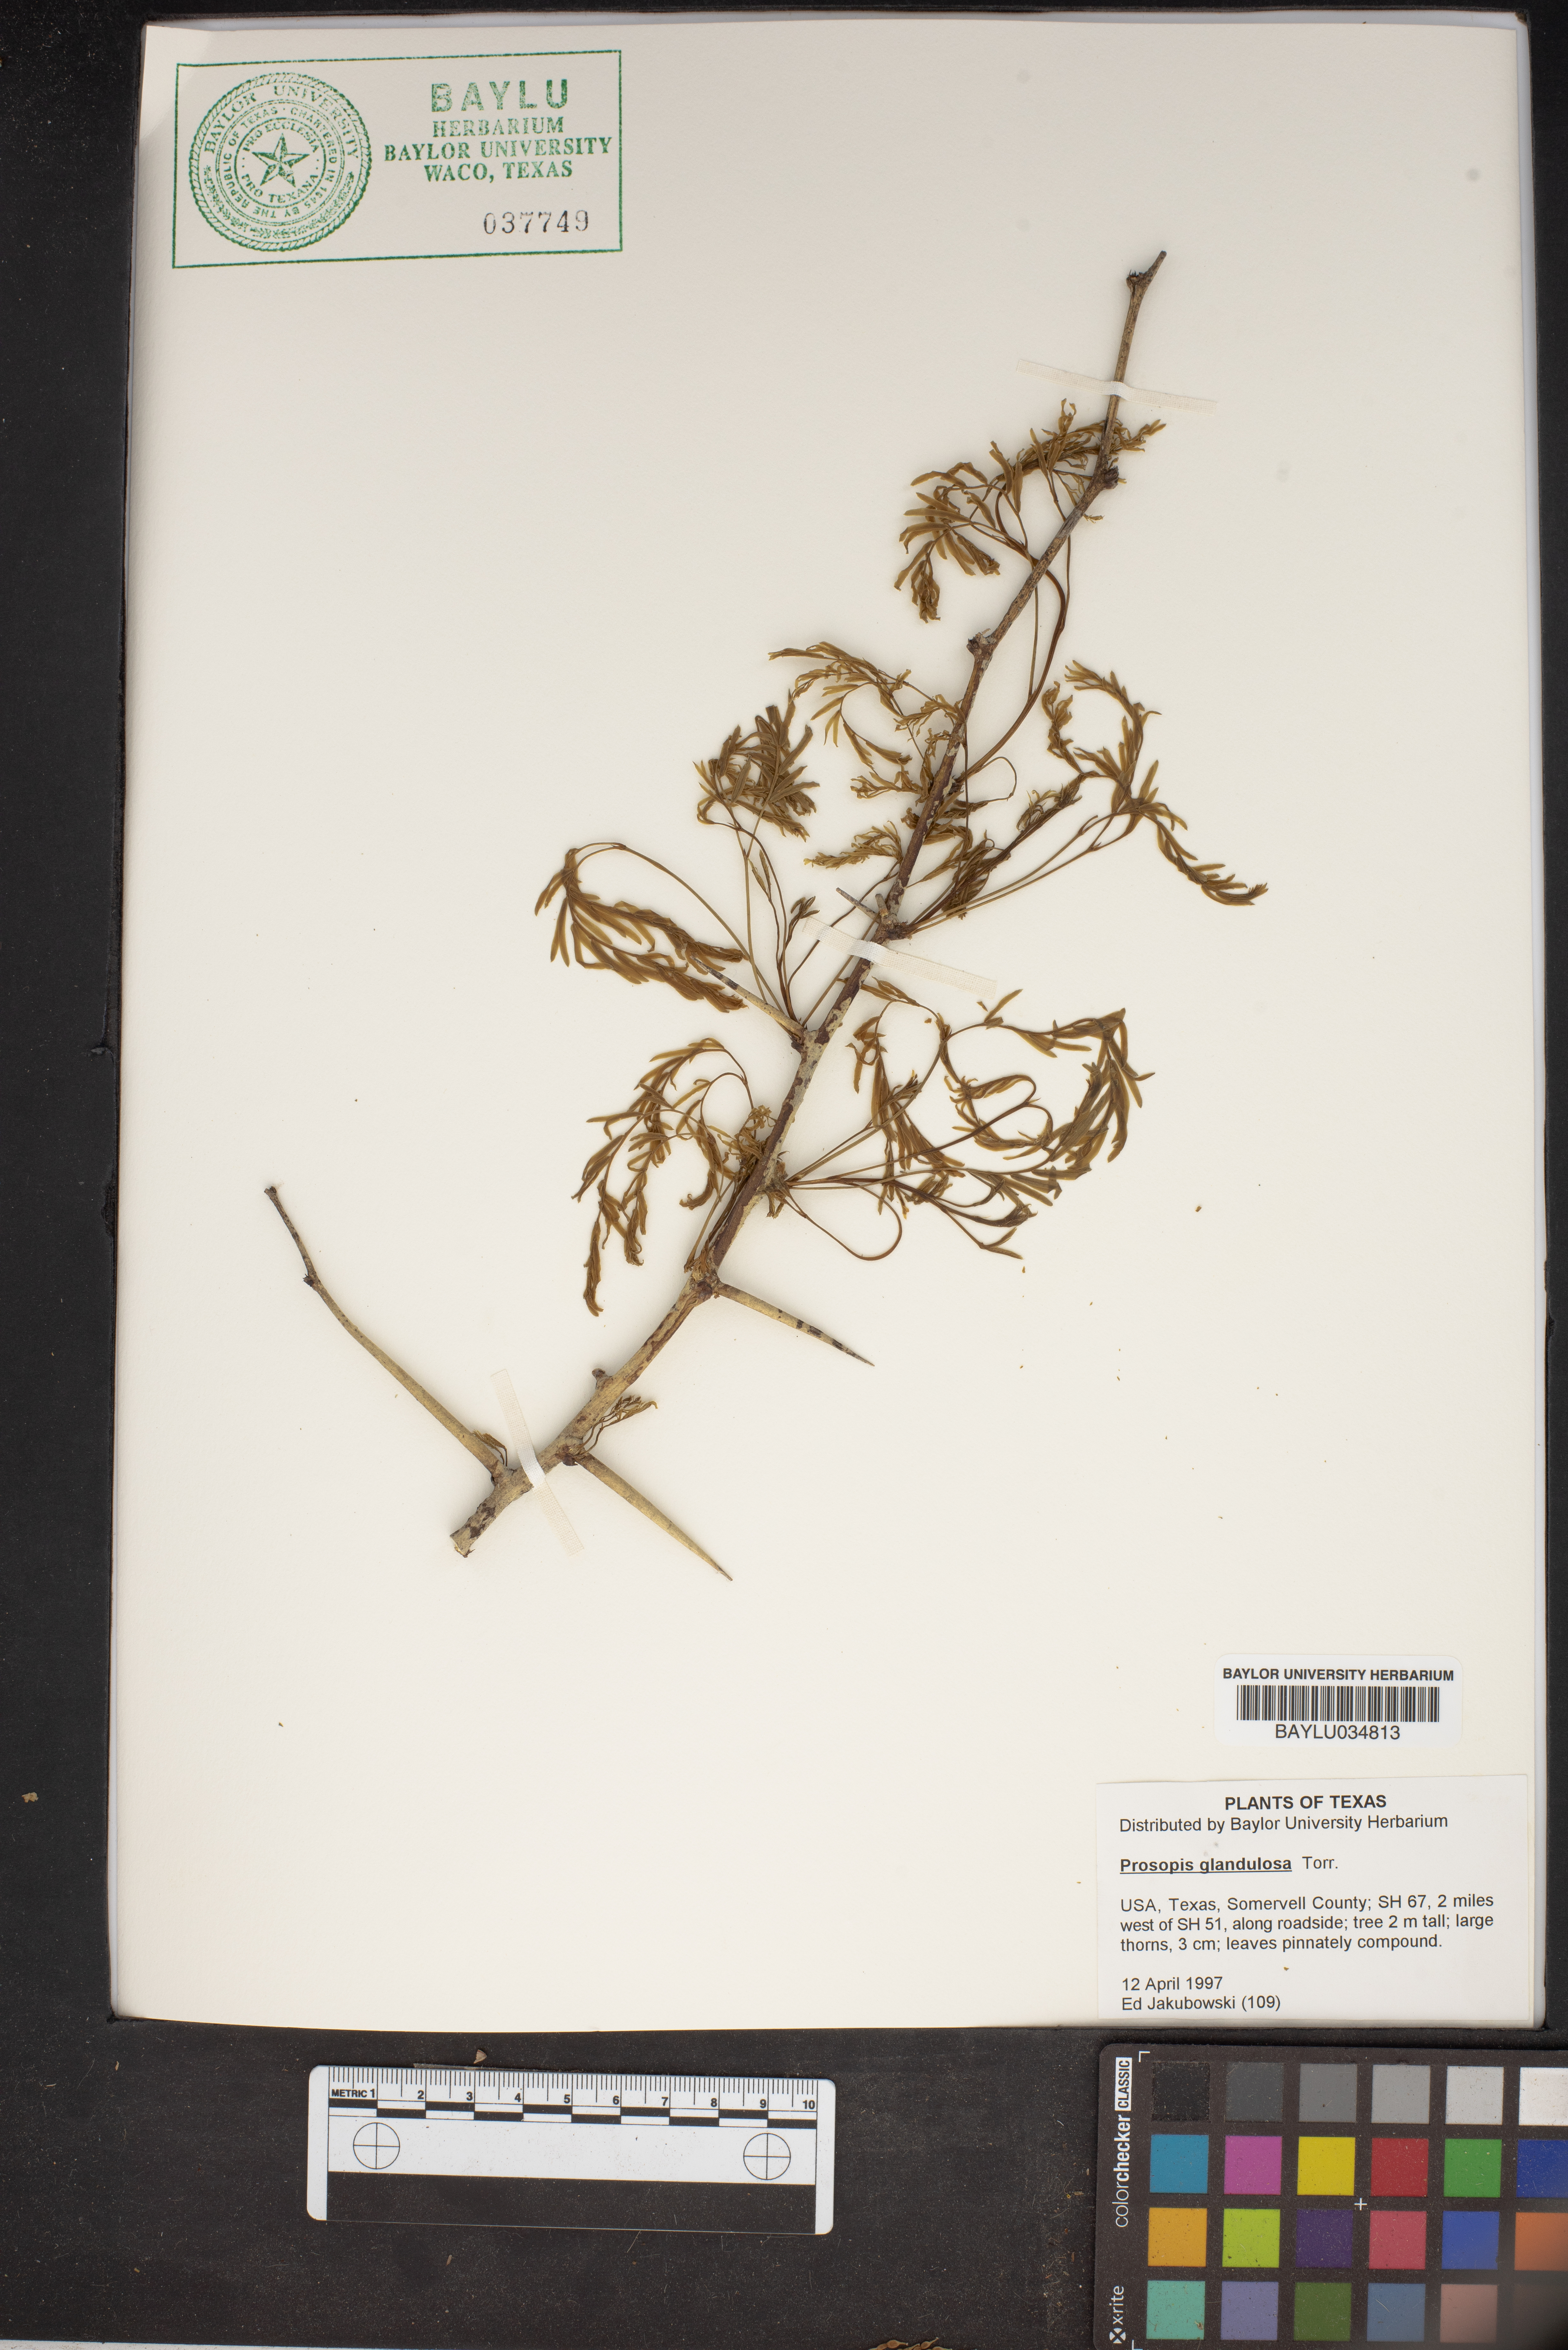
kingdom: Plantae
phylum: Tracheophyta
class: Magnoliopsida
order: Fabales
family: Fabaceae
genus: Prosopis
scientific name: Prosopis glandulosa
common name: Honey mesquite
